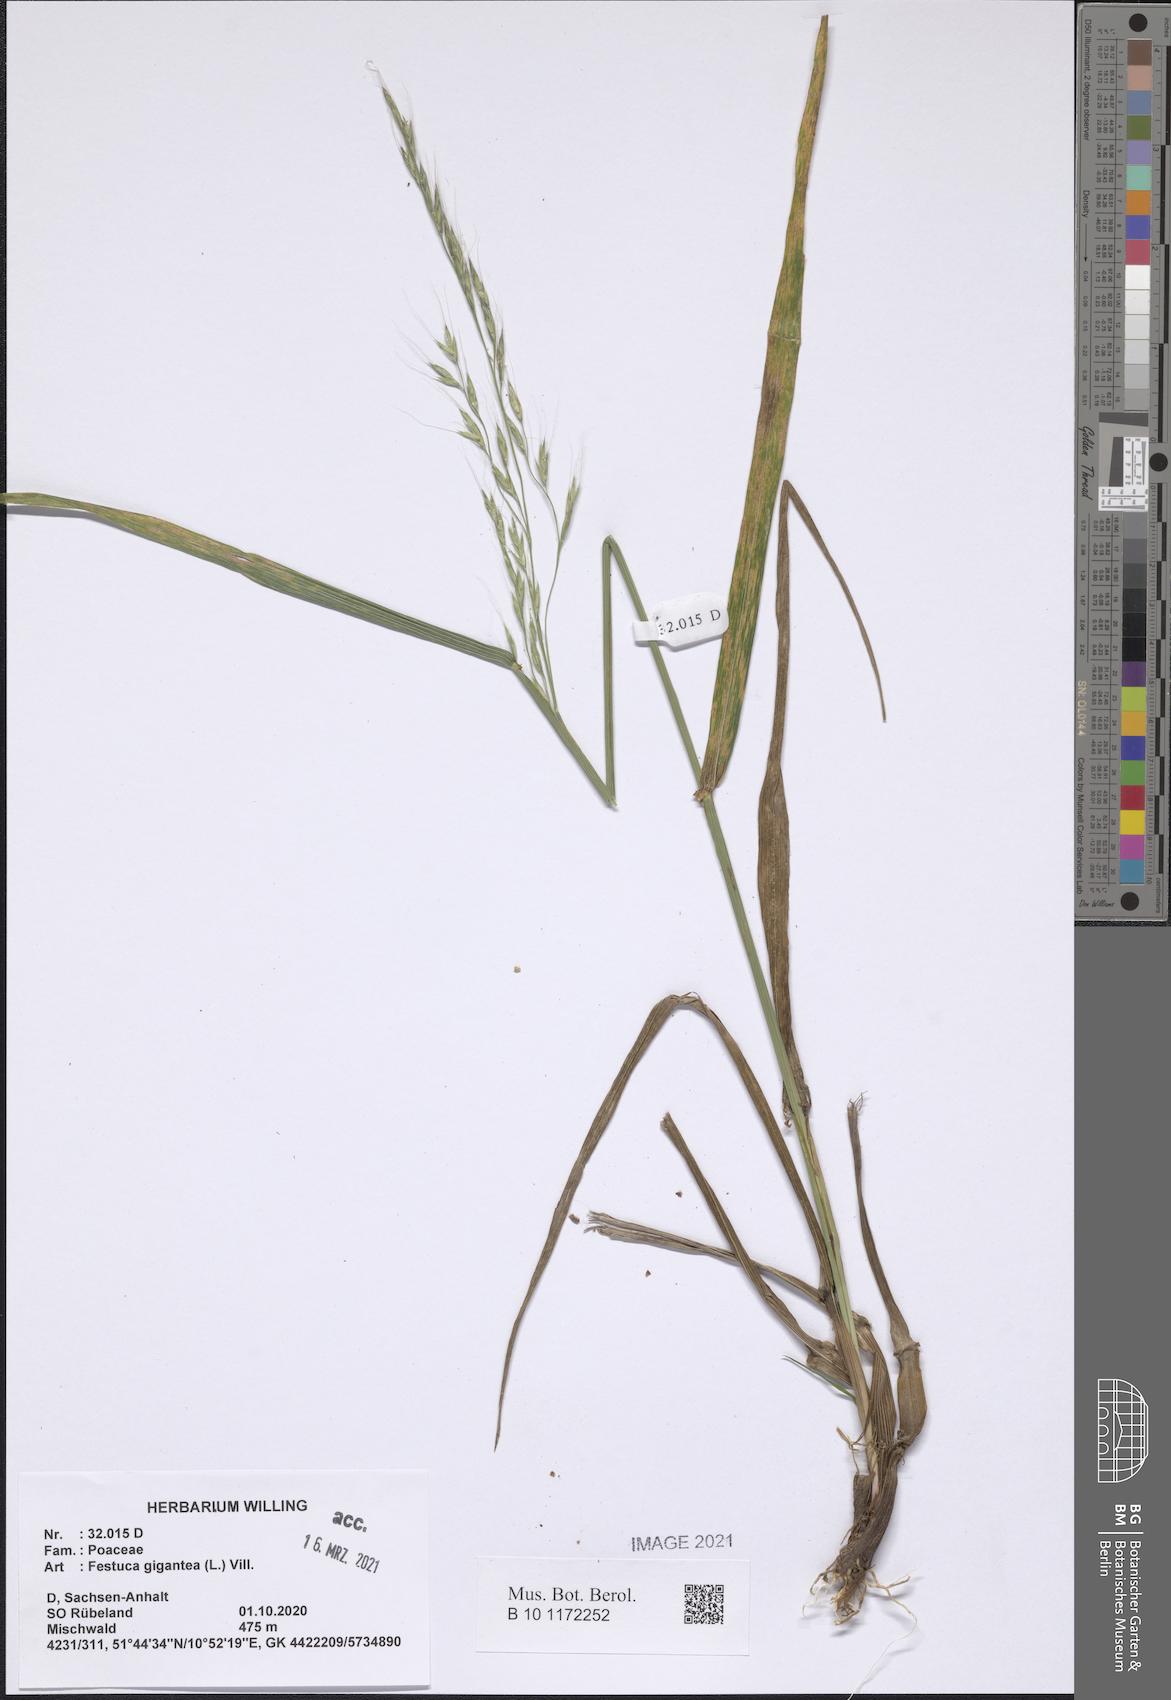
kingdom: Plantae
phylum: Tracheophyta
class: Liliopsida
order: Poales
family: Poaceae
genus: Lolium
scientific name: Lolium giganteum
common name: Giant fescue
